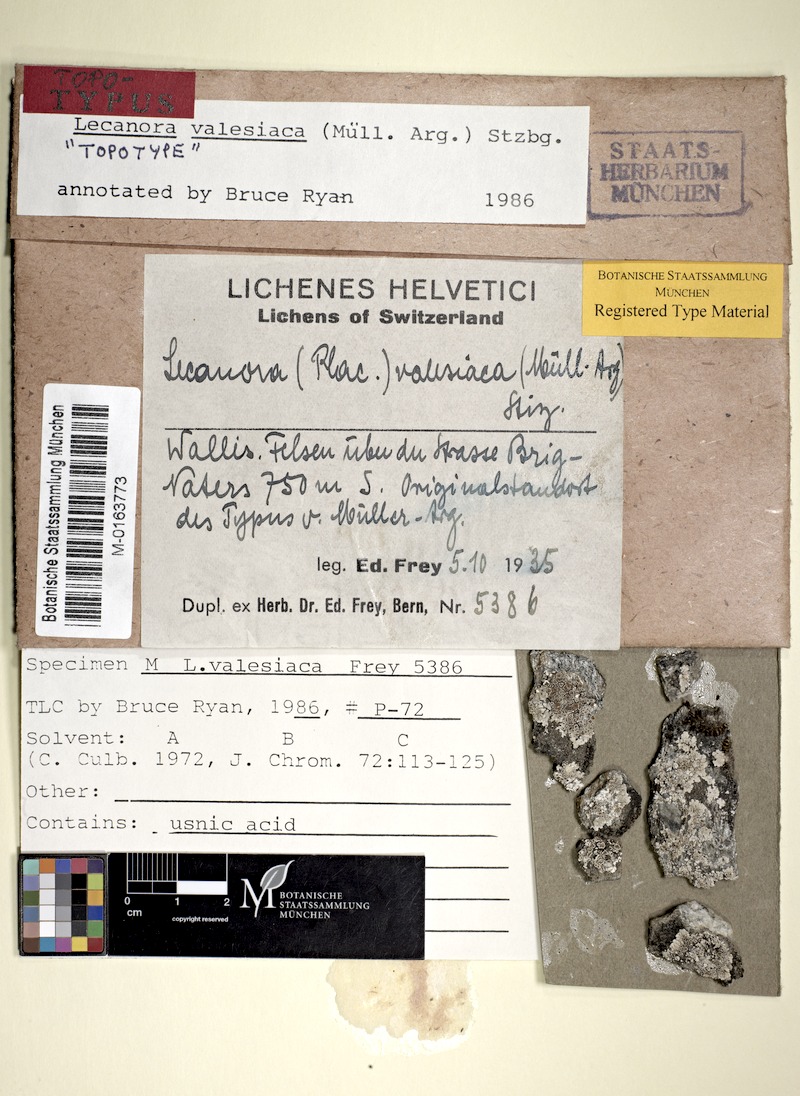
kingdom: Fungi
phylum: Ascomycota
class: Lecanoromycetes
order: Lecanorales
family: Lecanoraceae
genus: Lecanora
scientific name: Lecanora valesiaca
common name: Valois rim-lichen
